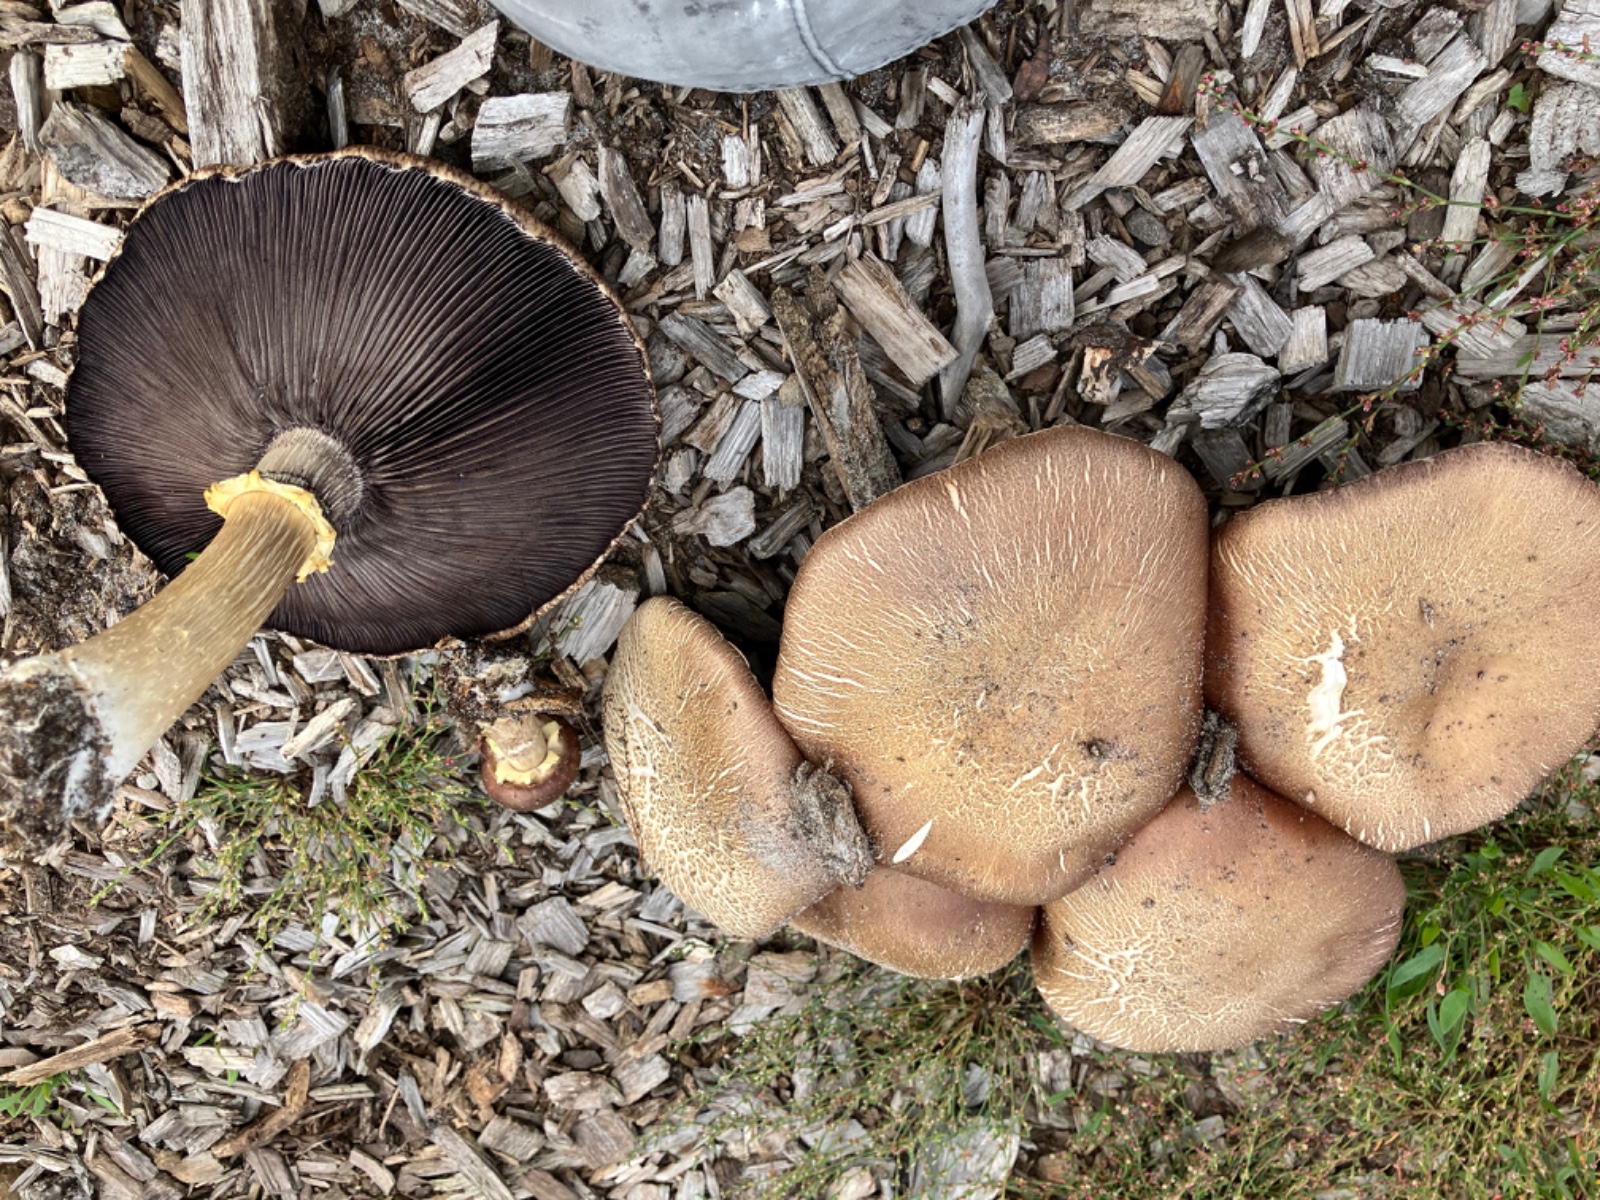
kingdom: Fungi
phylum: Basidiomycota
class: Agaricomycetes
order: Agaricales
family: Strophariaceae
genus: Stropharia
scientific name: Stropharia rugosoannulata
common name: rødbrun bredblad
